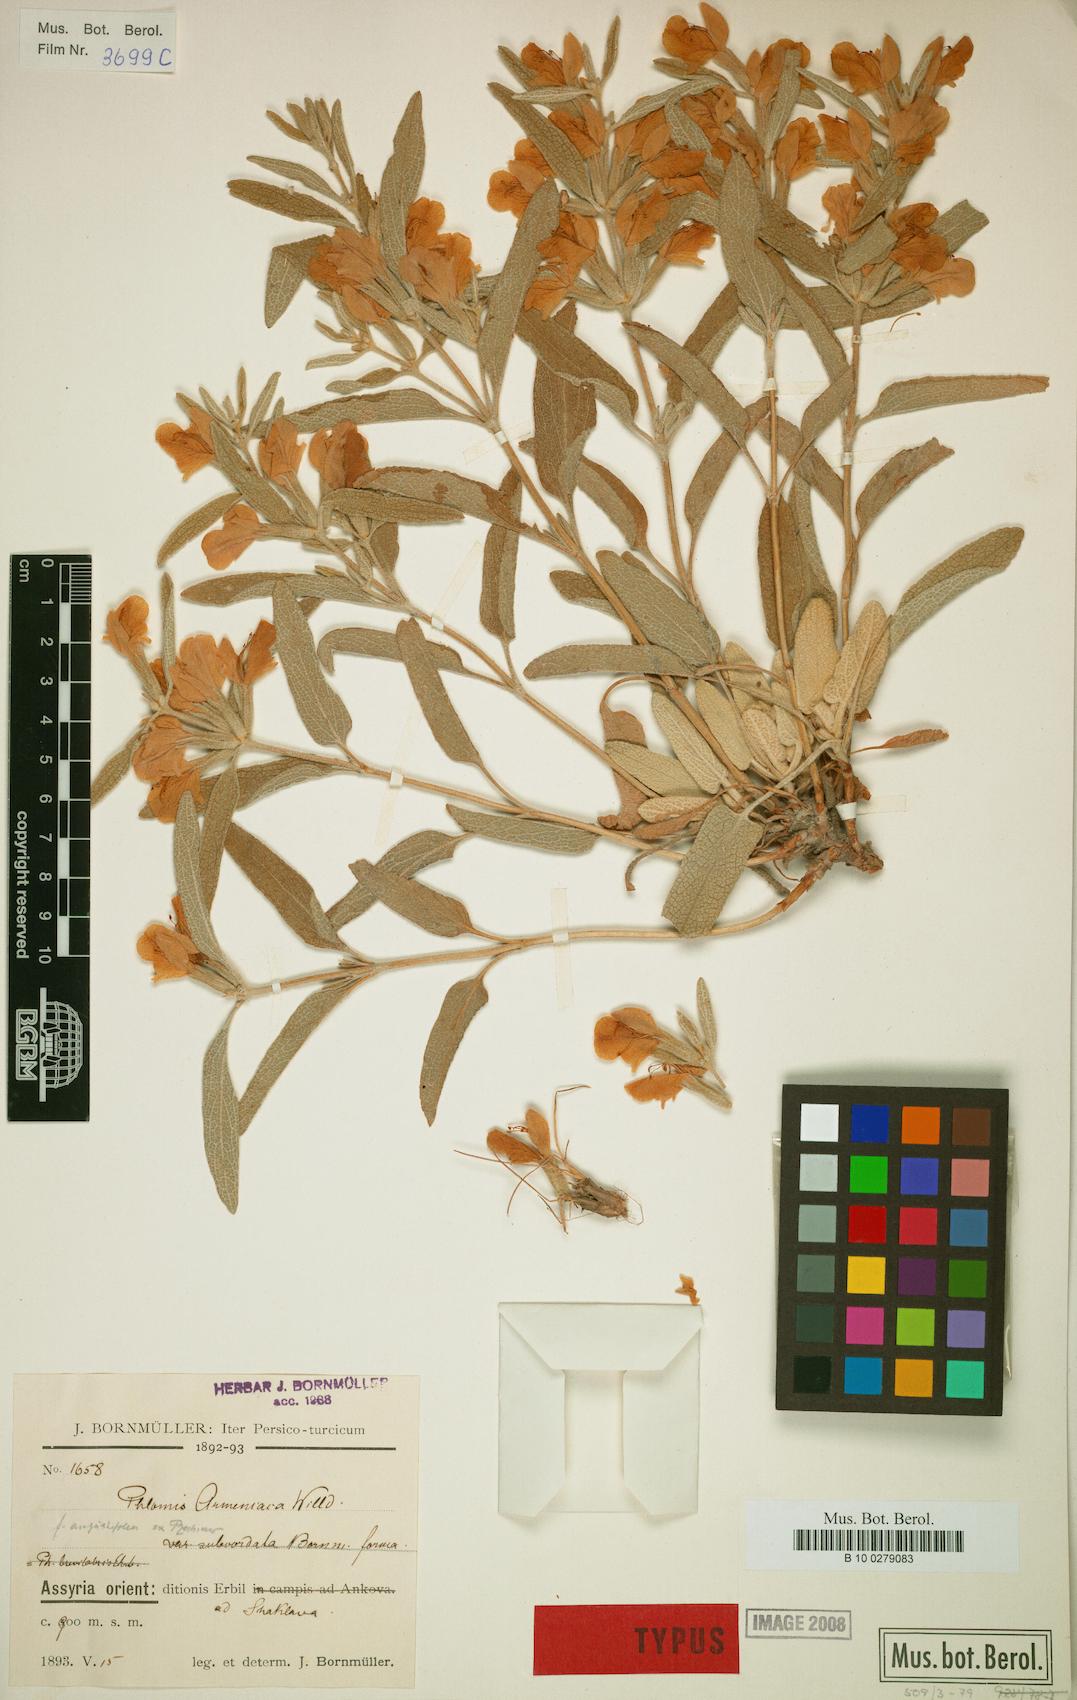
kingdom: Plantae
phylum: Tracheophyta
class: Magnoliopsida
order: Lamiales
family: Lamiaceae
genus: Phlomis
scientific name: Phlomis armeniaca
